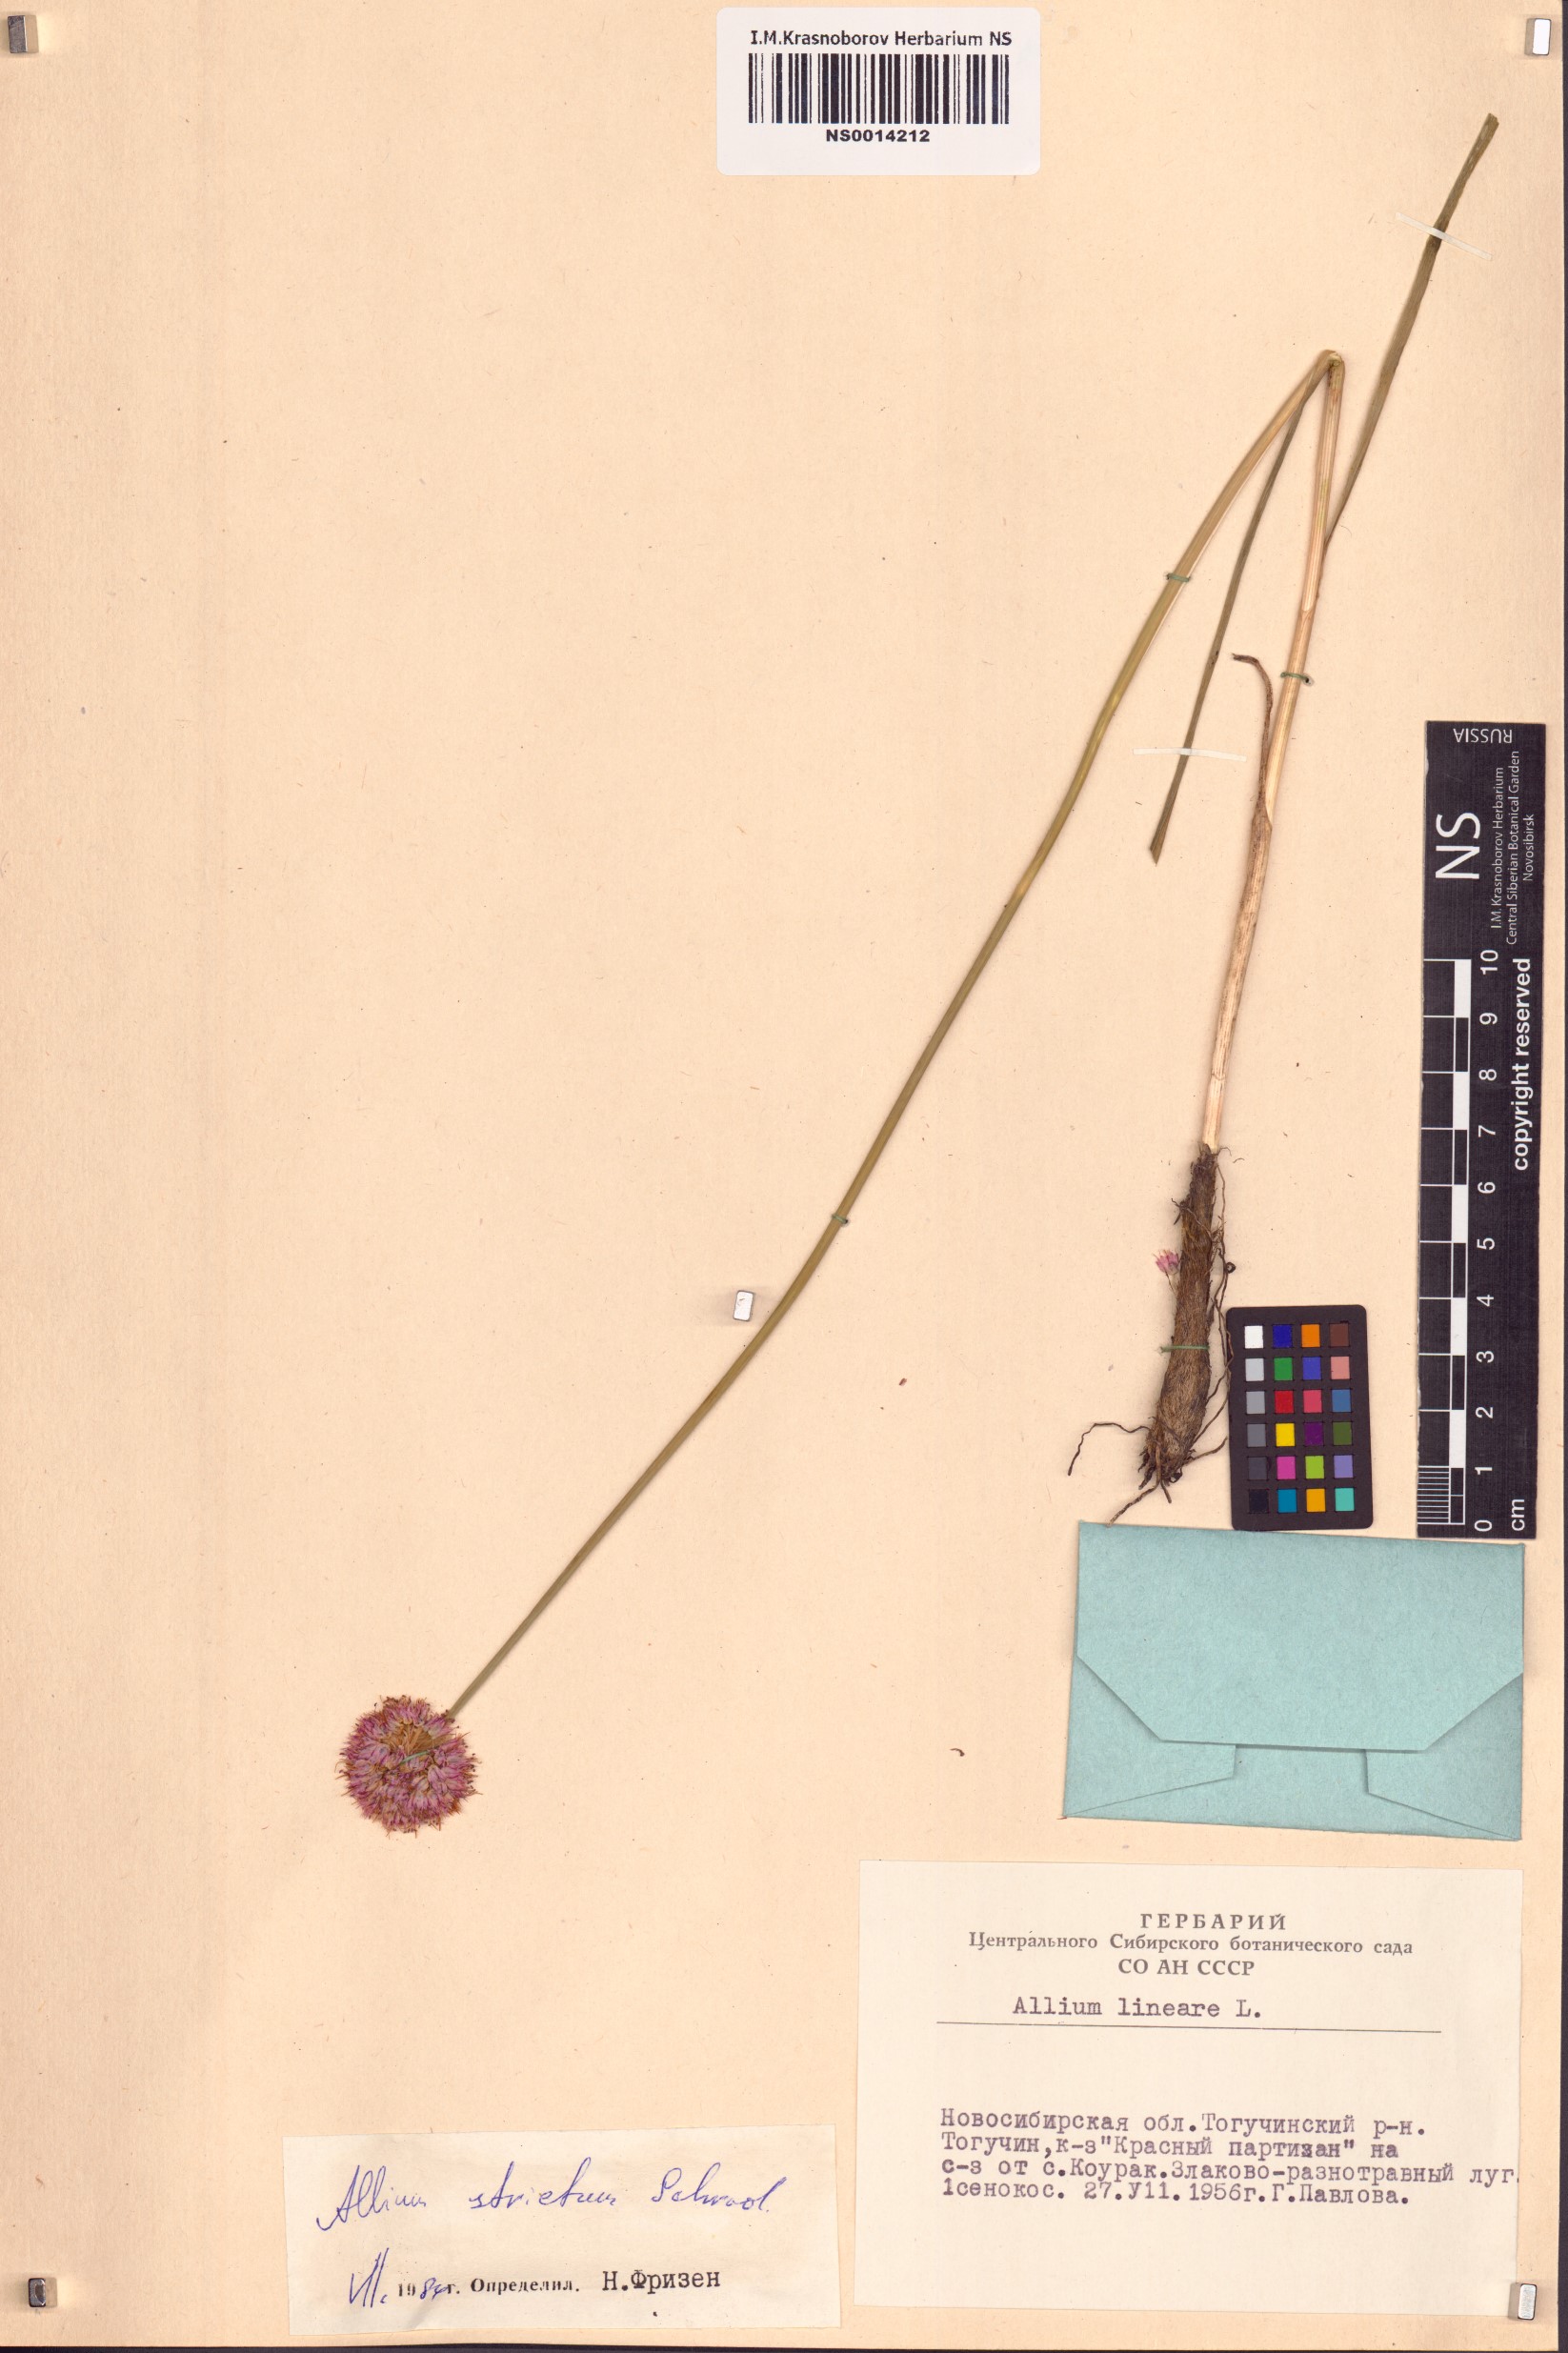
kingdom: Plantae
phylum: Tracheophyta
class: Liliopsida
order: Asparagales
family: Amaryllidaceae
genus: Allium
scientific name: Allium strictum
